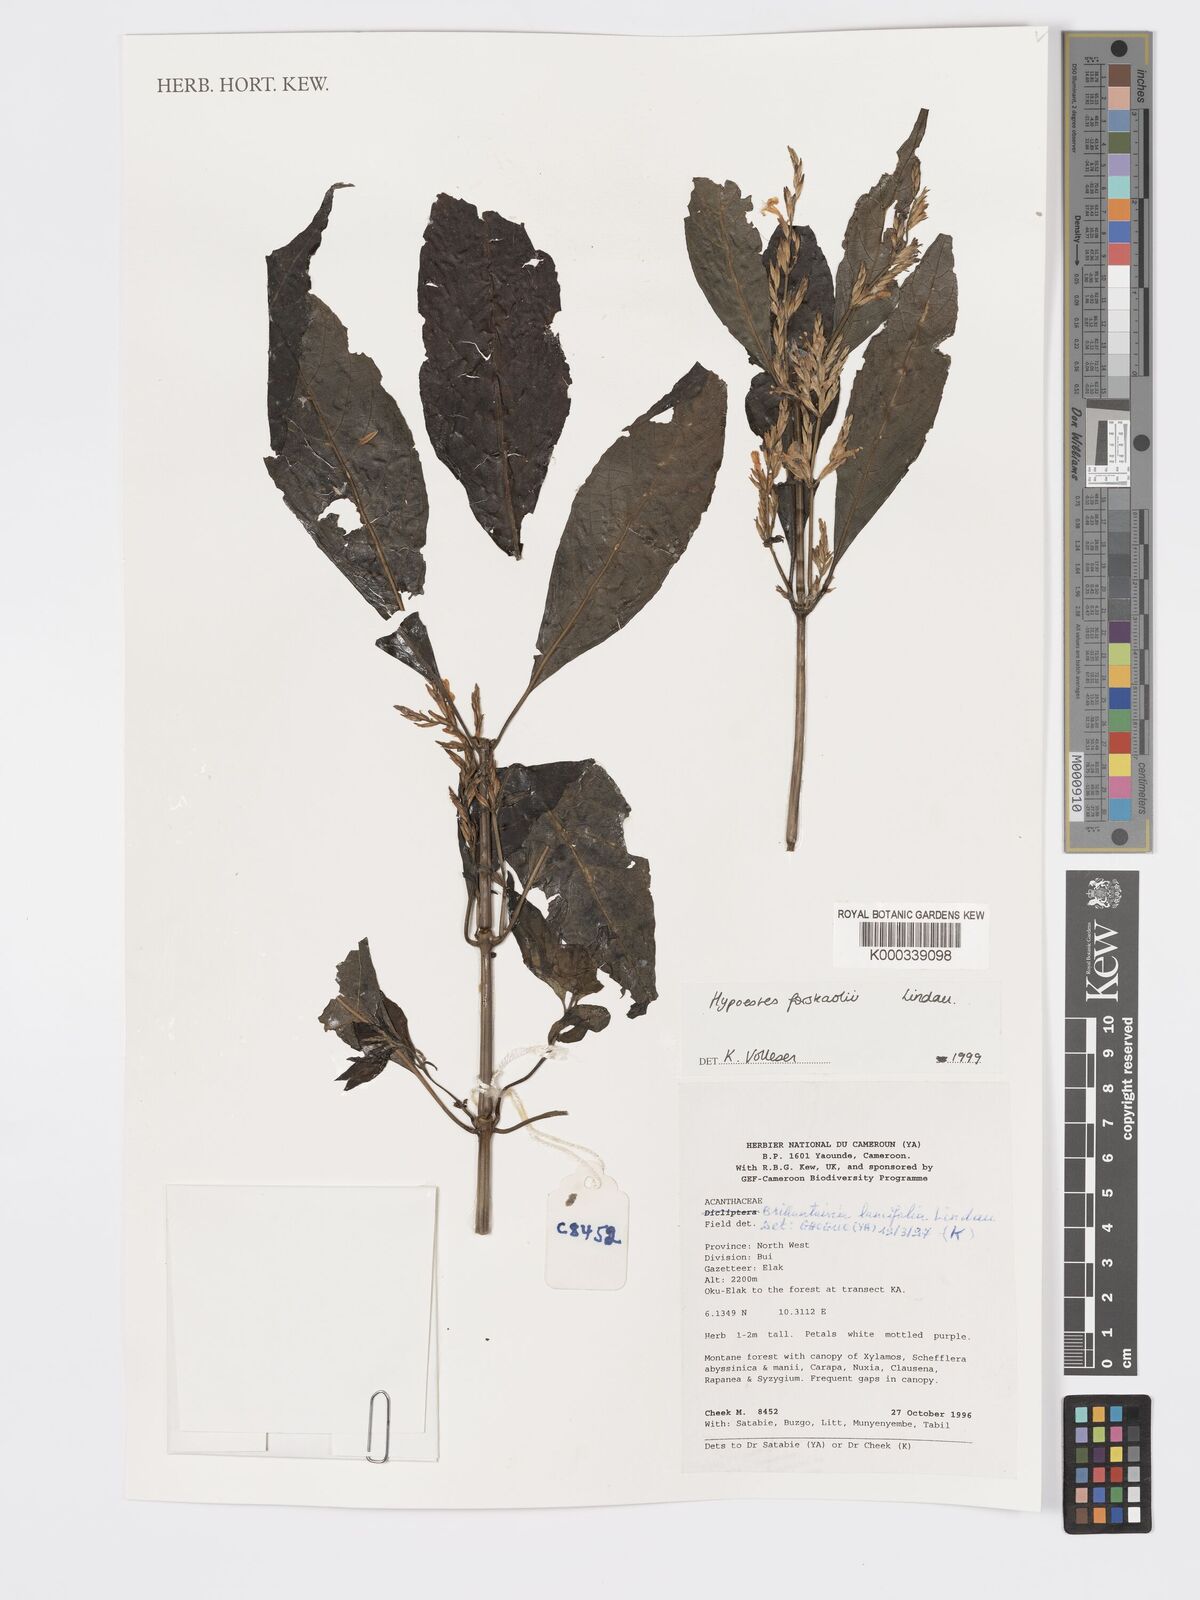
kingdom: Plantae
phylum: Tracheophyta
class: Magnoliopsida
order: Lamiales
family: Acanthaceae
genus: Hypoestes
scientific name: Hypoestes forskaolii
